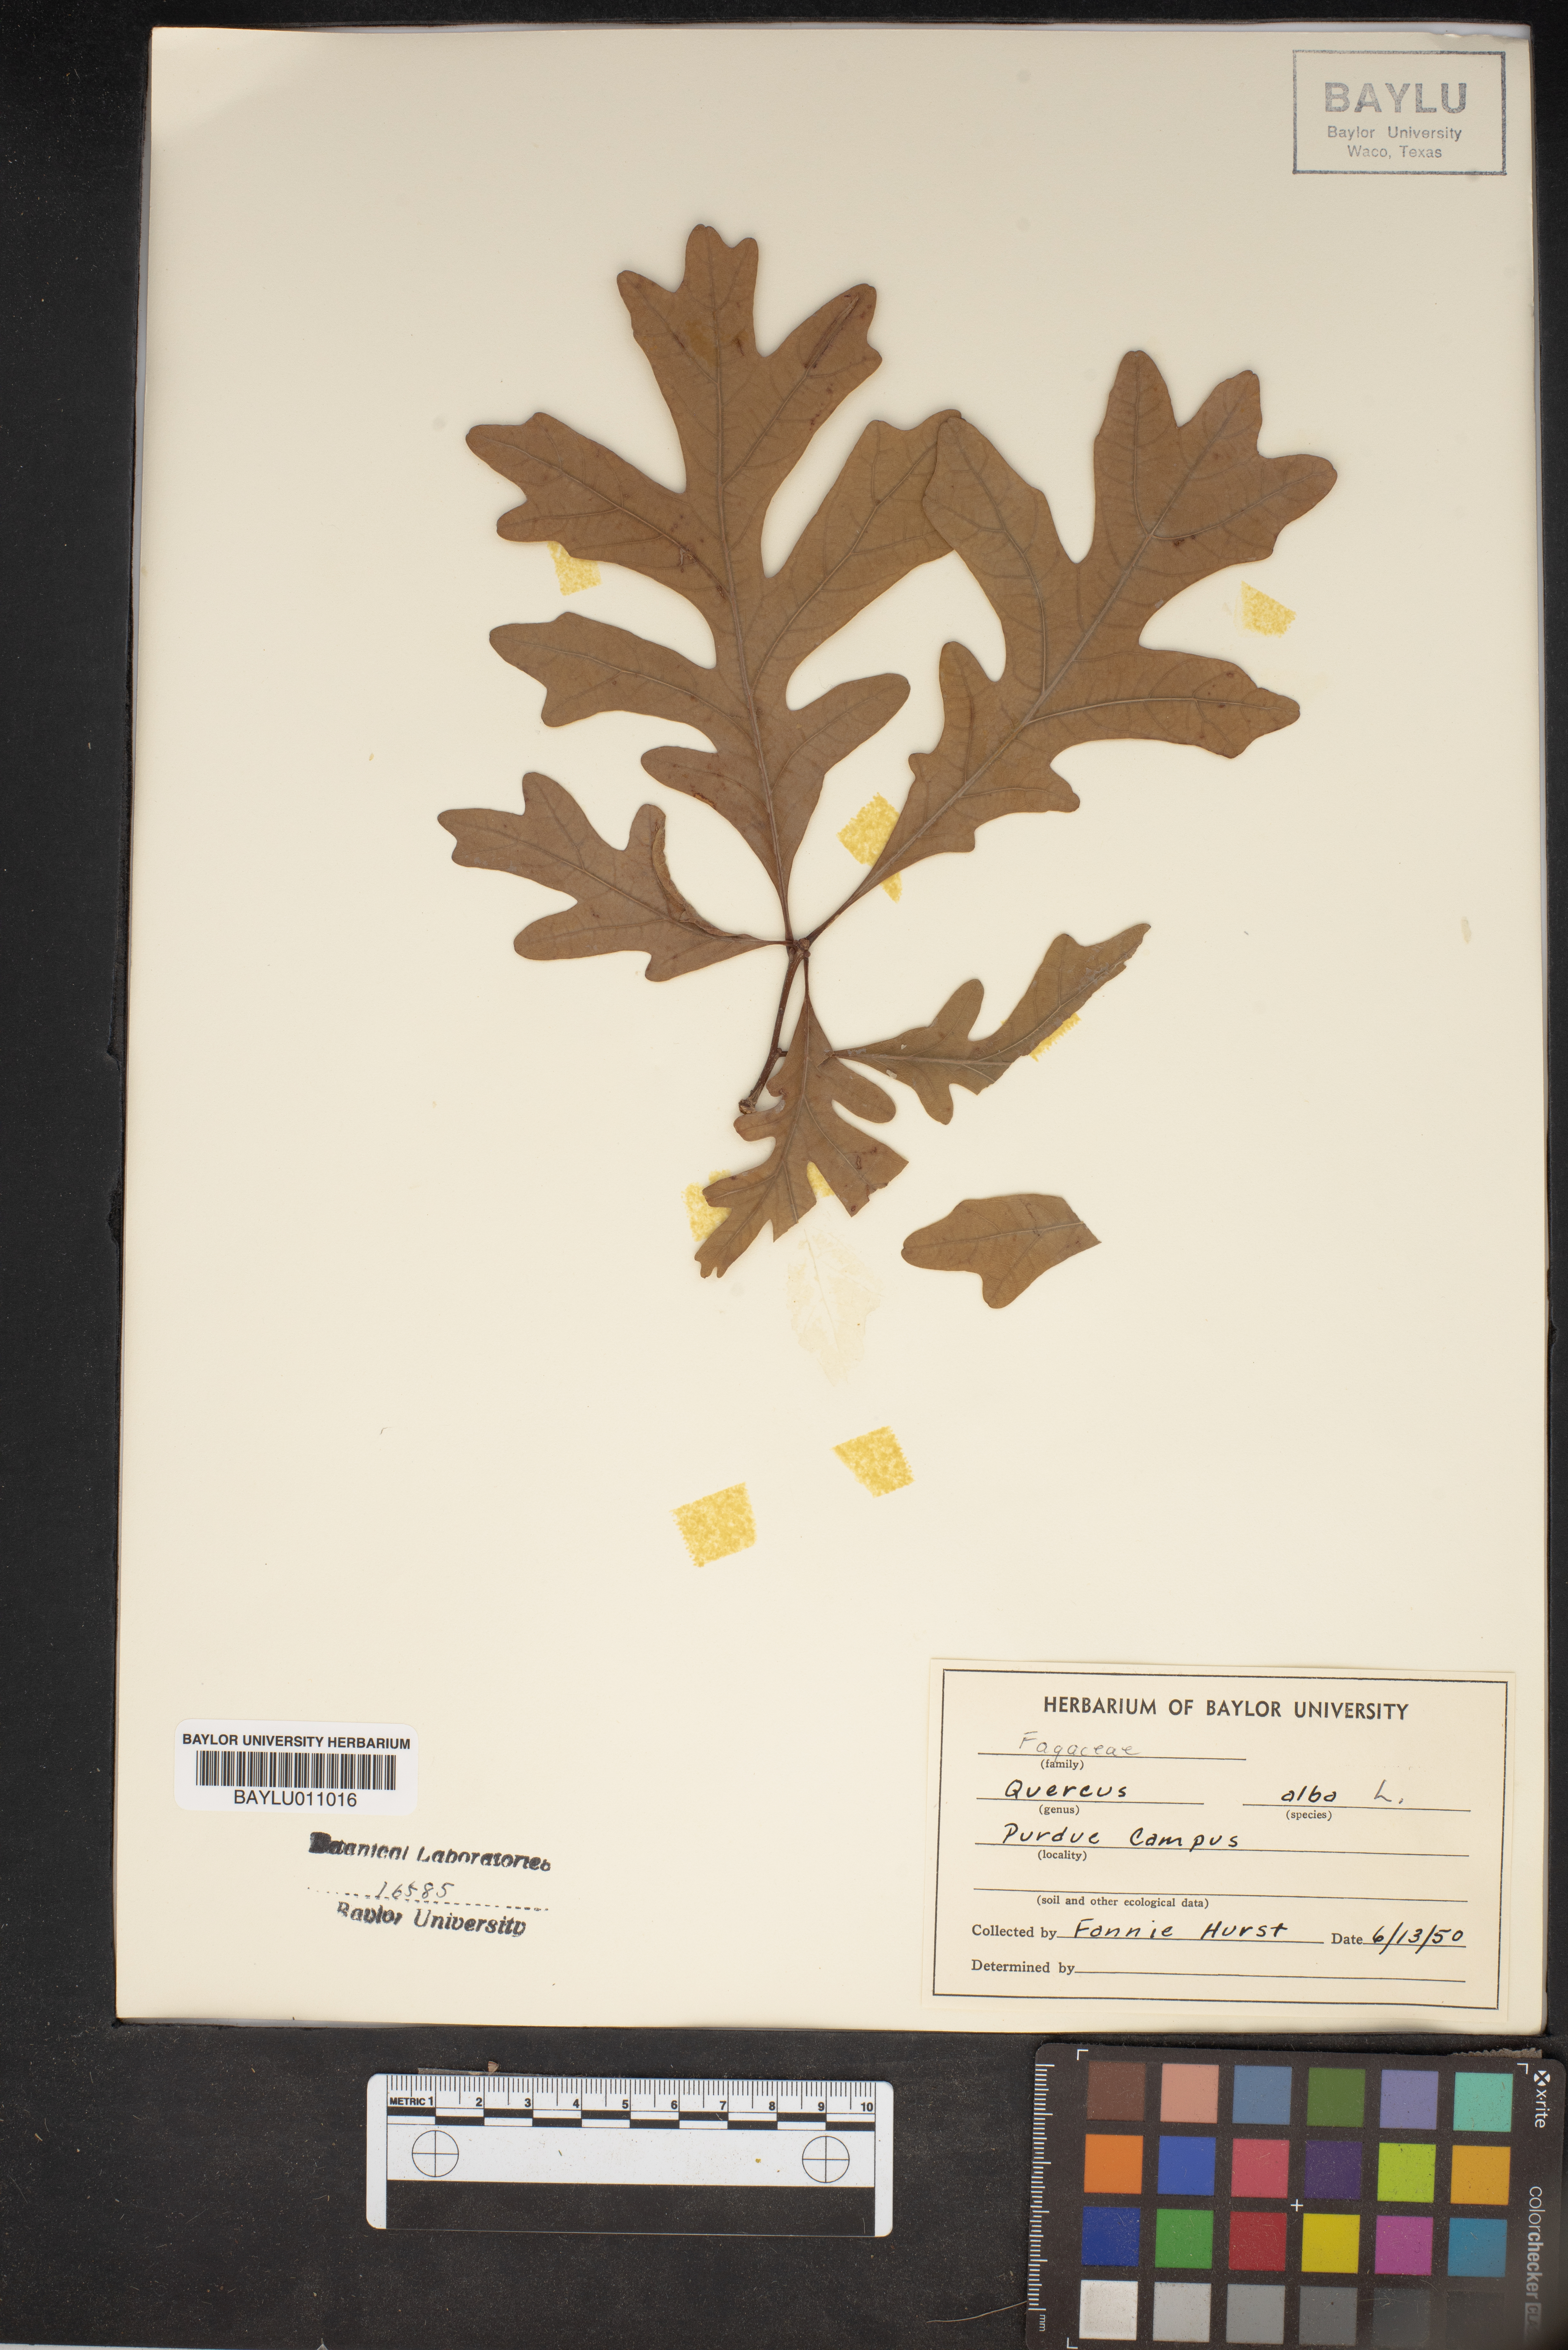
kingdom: Plantae
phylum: Tracheophyta
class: Magnoliopsida
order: Fagales
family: Fagaceae
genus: Quercus
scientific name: Quercus alba
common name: White oak
